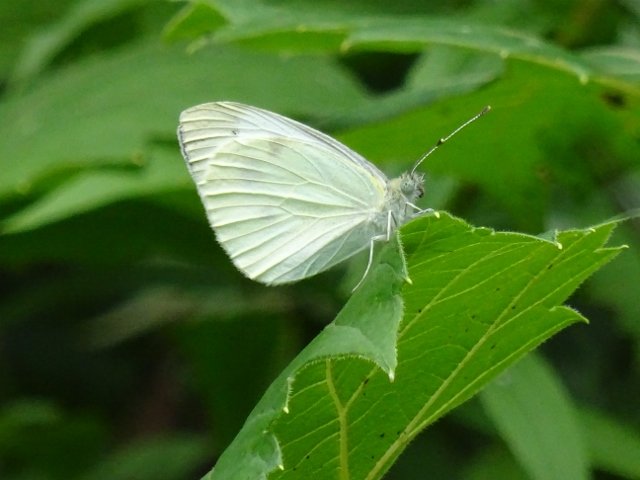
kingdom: Animalia
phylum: Arthropoda
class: Insecta
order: Lepidoptera
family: Pieridae
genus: Pieris
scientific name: Pieris rapae
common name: Cabbage White
